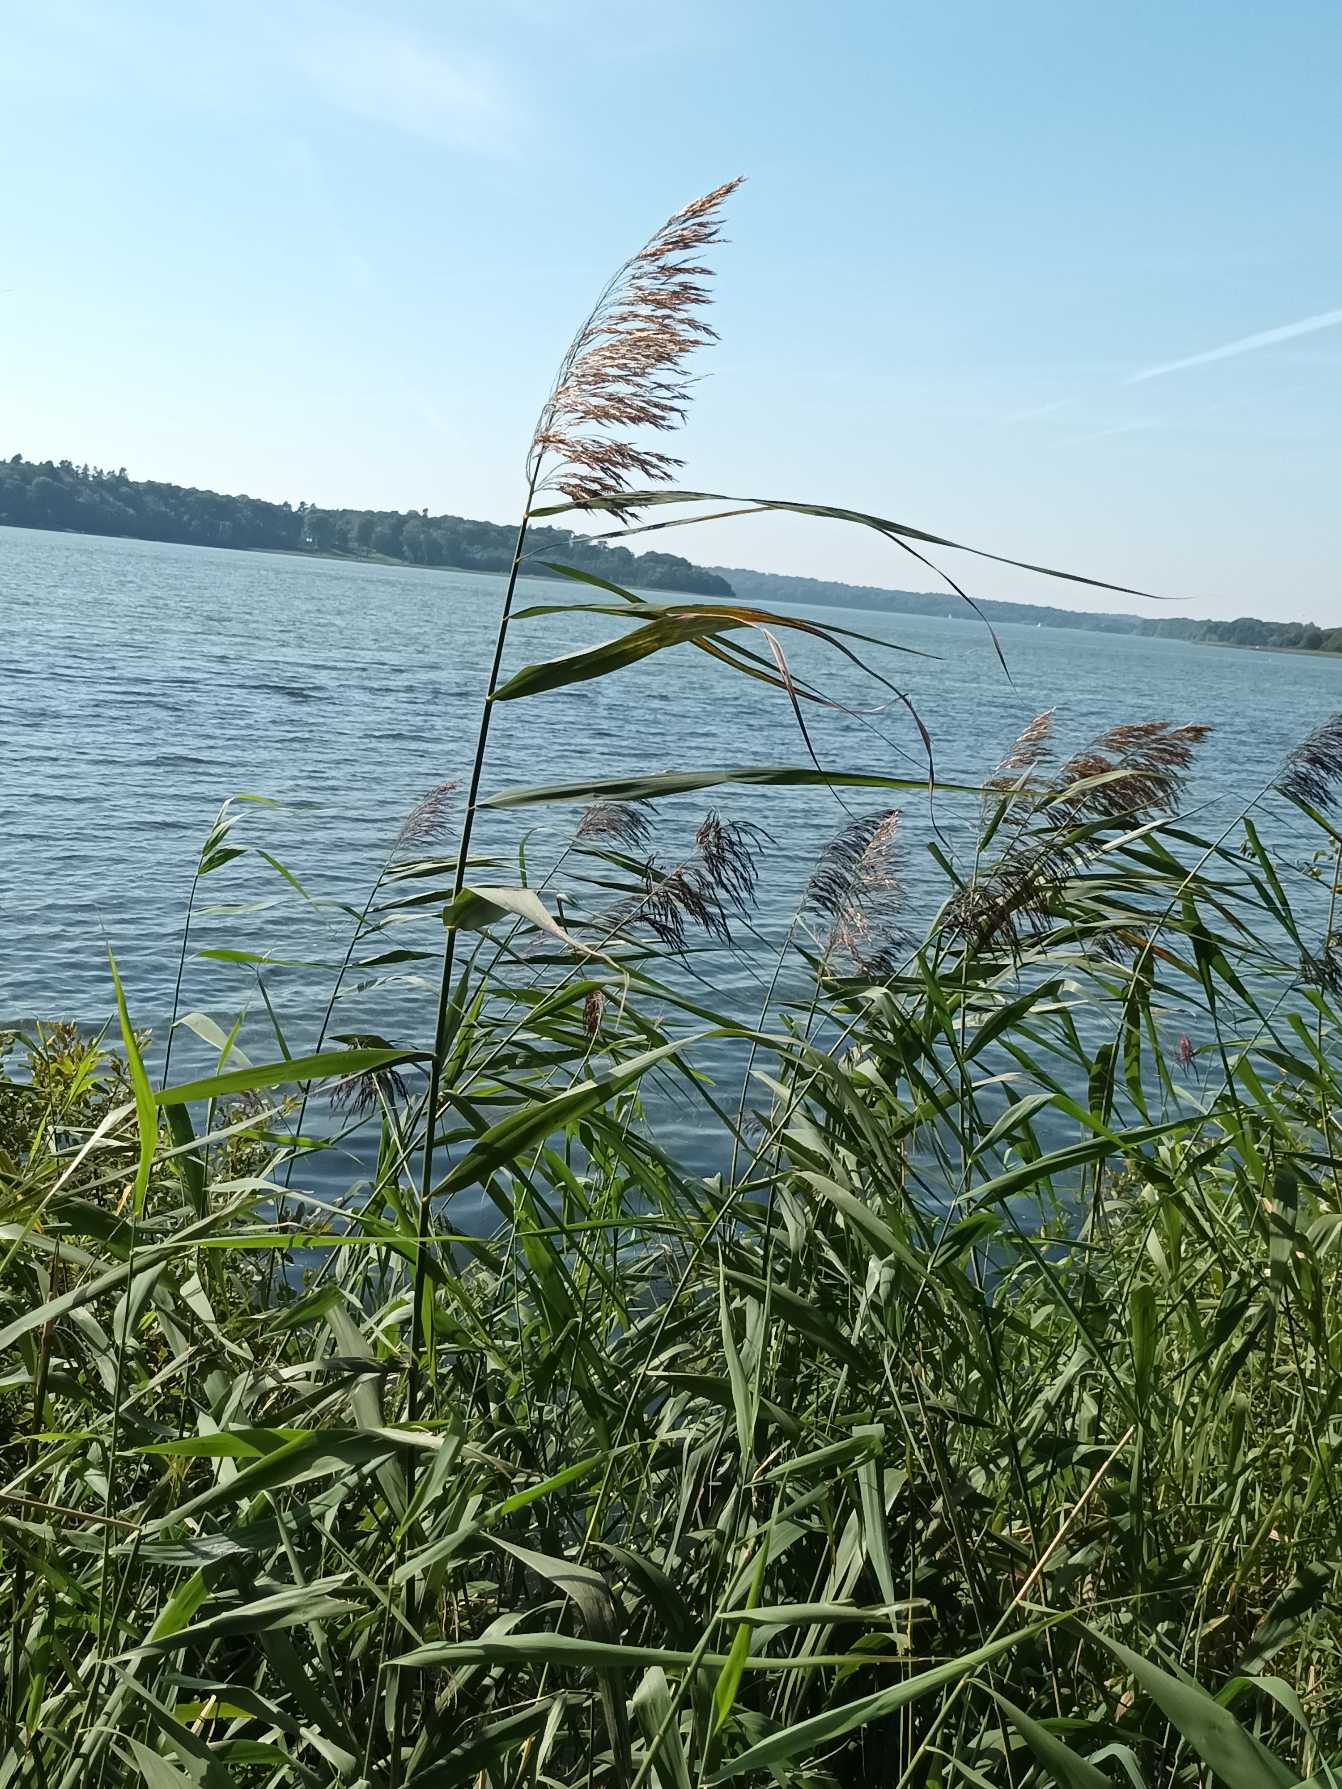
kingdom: Plantae
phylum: Tracheophyta
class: Liliopsida
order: Poales
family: Poaceae
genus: Phragmites
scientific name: Phragmites australis
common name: Tagrør
